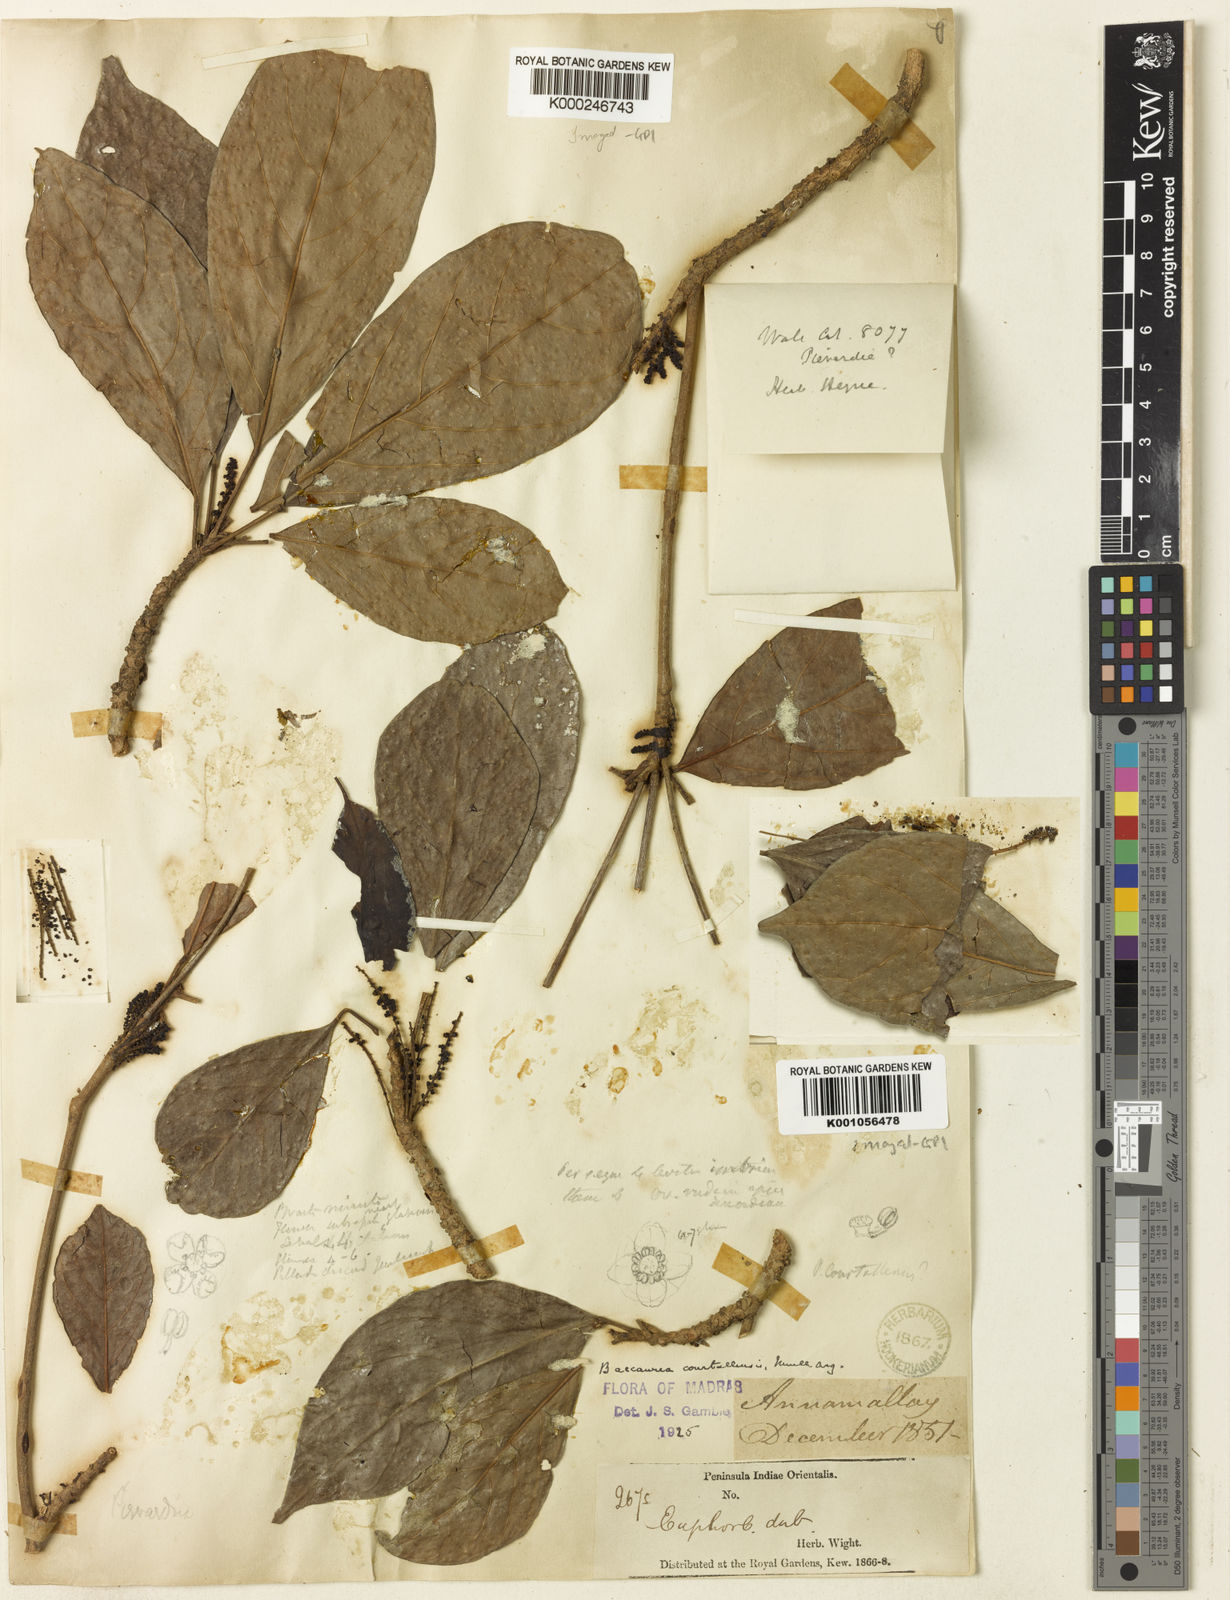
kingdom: Plantae
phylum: Tracheophyta
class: Magnoliopsida
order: Malpighiales
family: Phyllanthaceae
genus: Baccaurea
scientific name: Baccaurea
